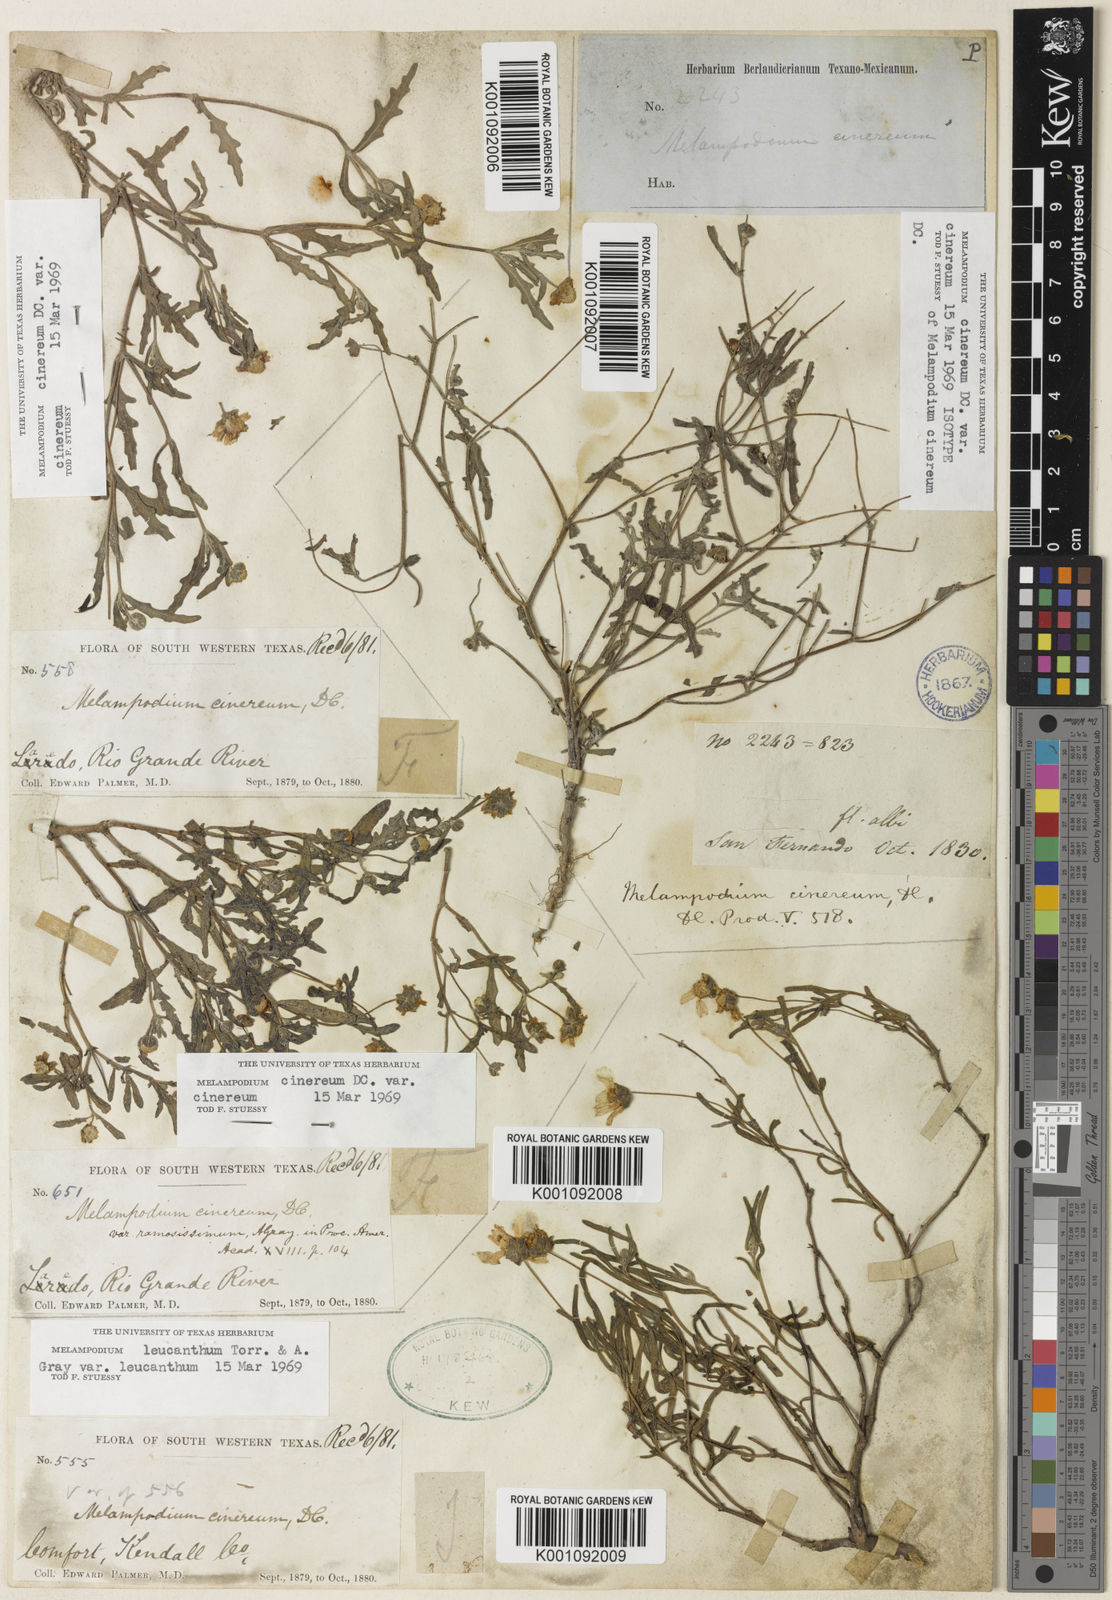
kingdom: Plantae
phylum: Tracheophyta
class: Magnoliopsida
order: Asterales
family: Asteraceae
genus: Melampodium
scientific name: Melampodium cinereum
